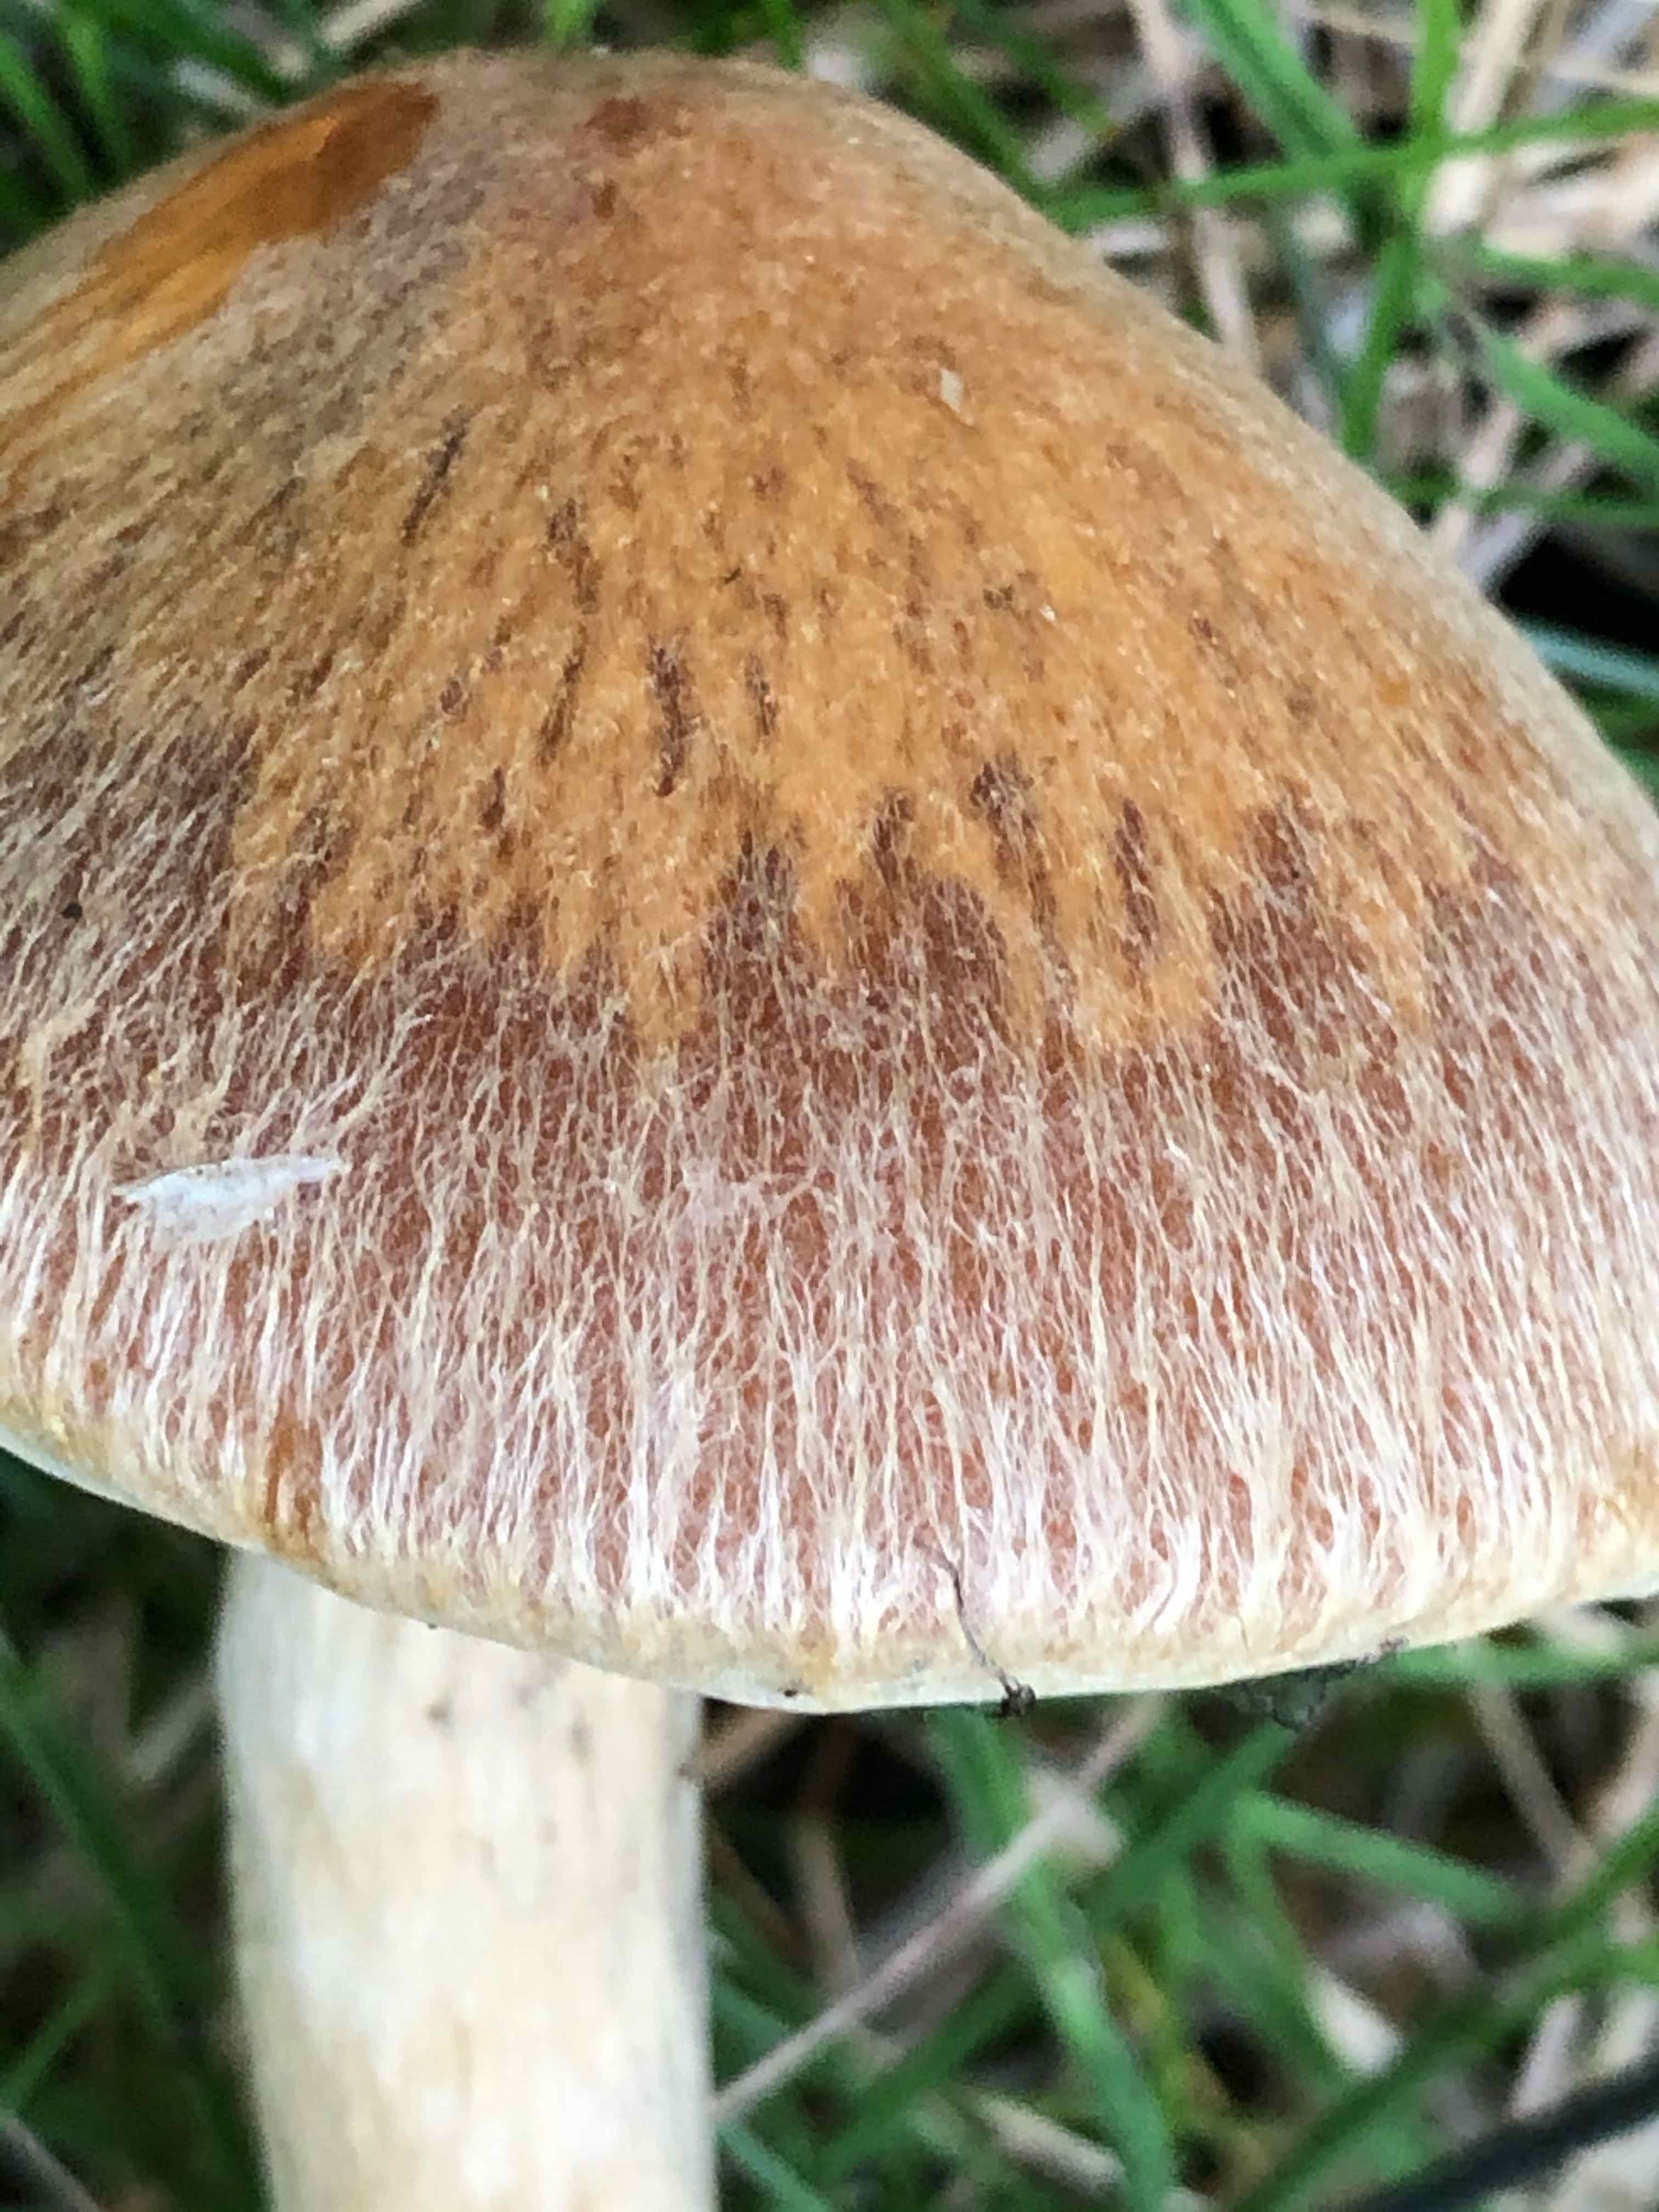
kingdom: Fungi
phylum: Basidiomycota
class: Agaricomycetes
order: Agaricales
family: Psathyrellaceae
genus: Lacrymaria
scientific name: Lacrymaria lacrymabunda
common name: grædende mørkhat
